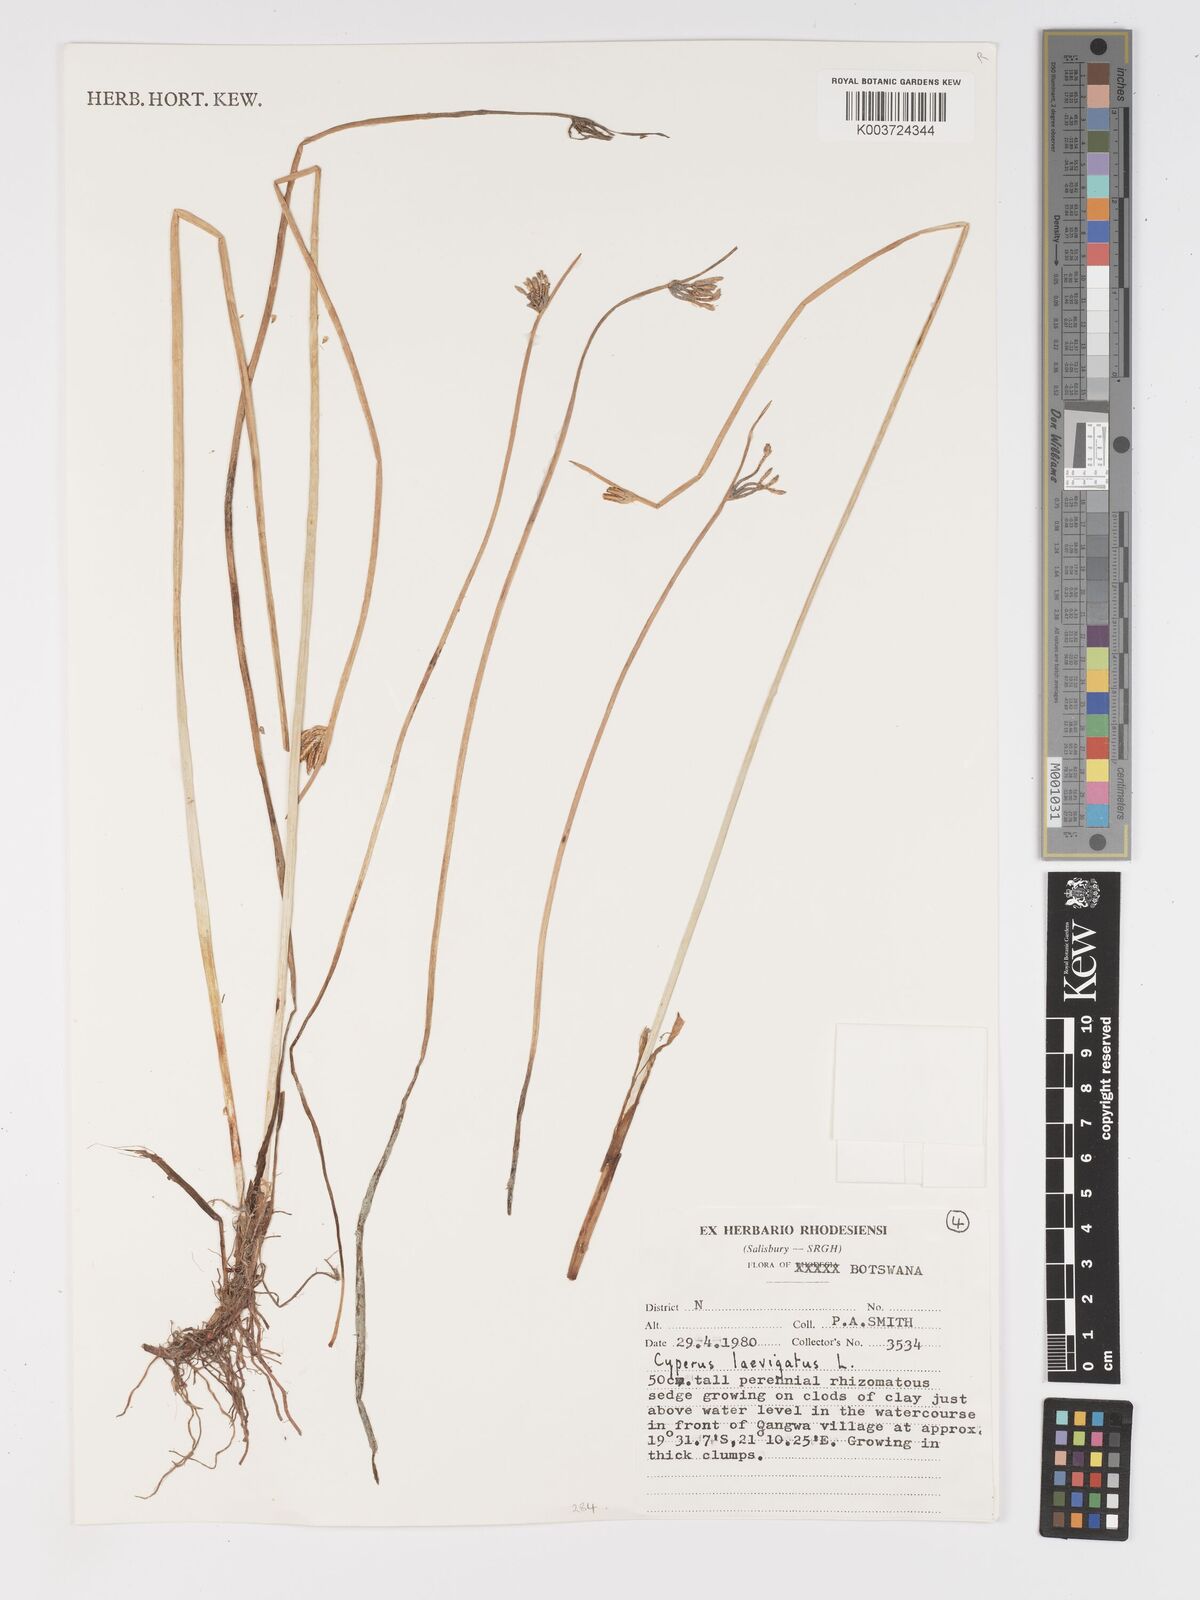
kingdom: Plantae
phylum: Tracheophyta
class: Liliopsida
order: Poales
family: Cyperaceae
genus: Cyperus
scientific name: Cyperus laevigatus
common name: Smooth flat sedge
